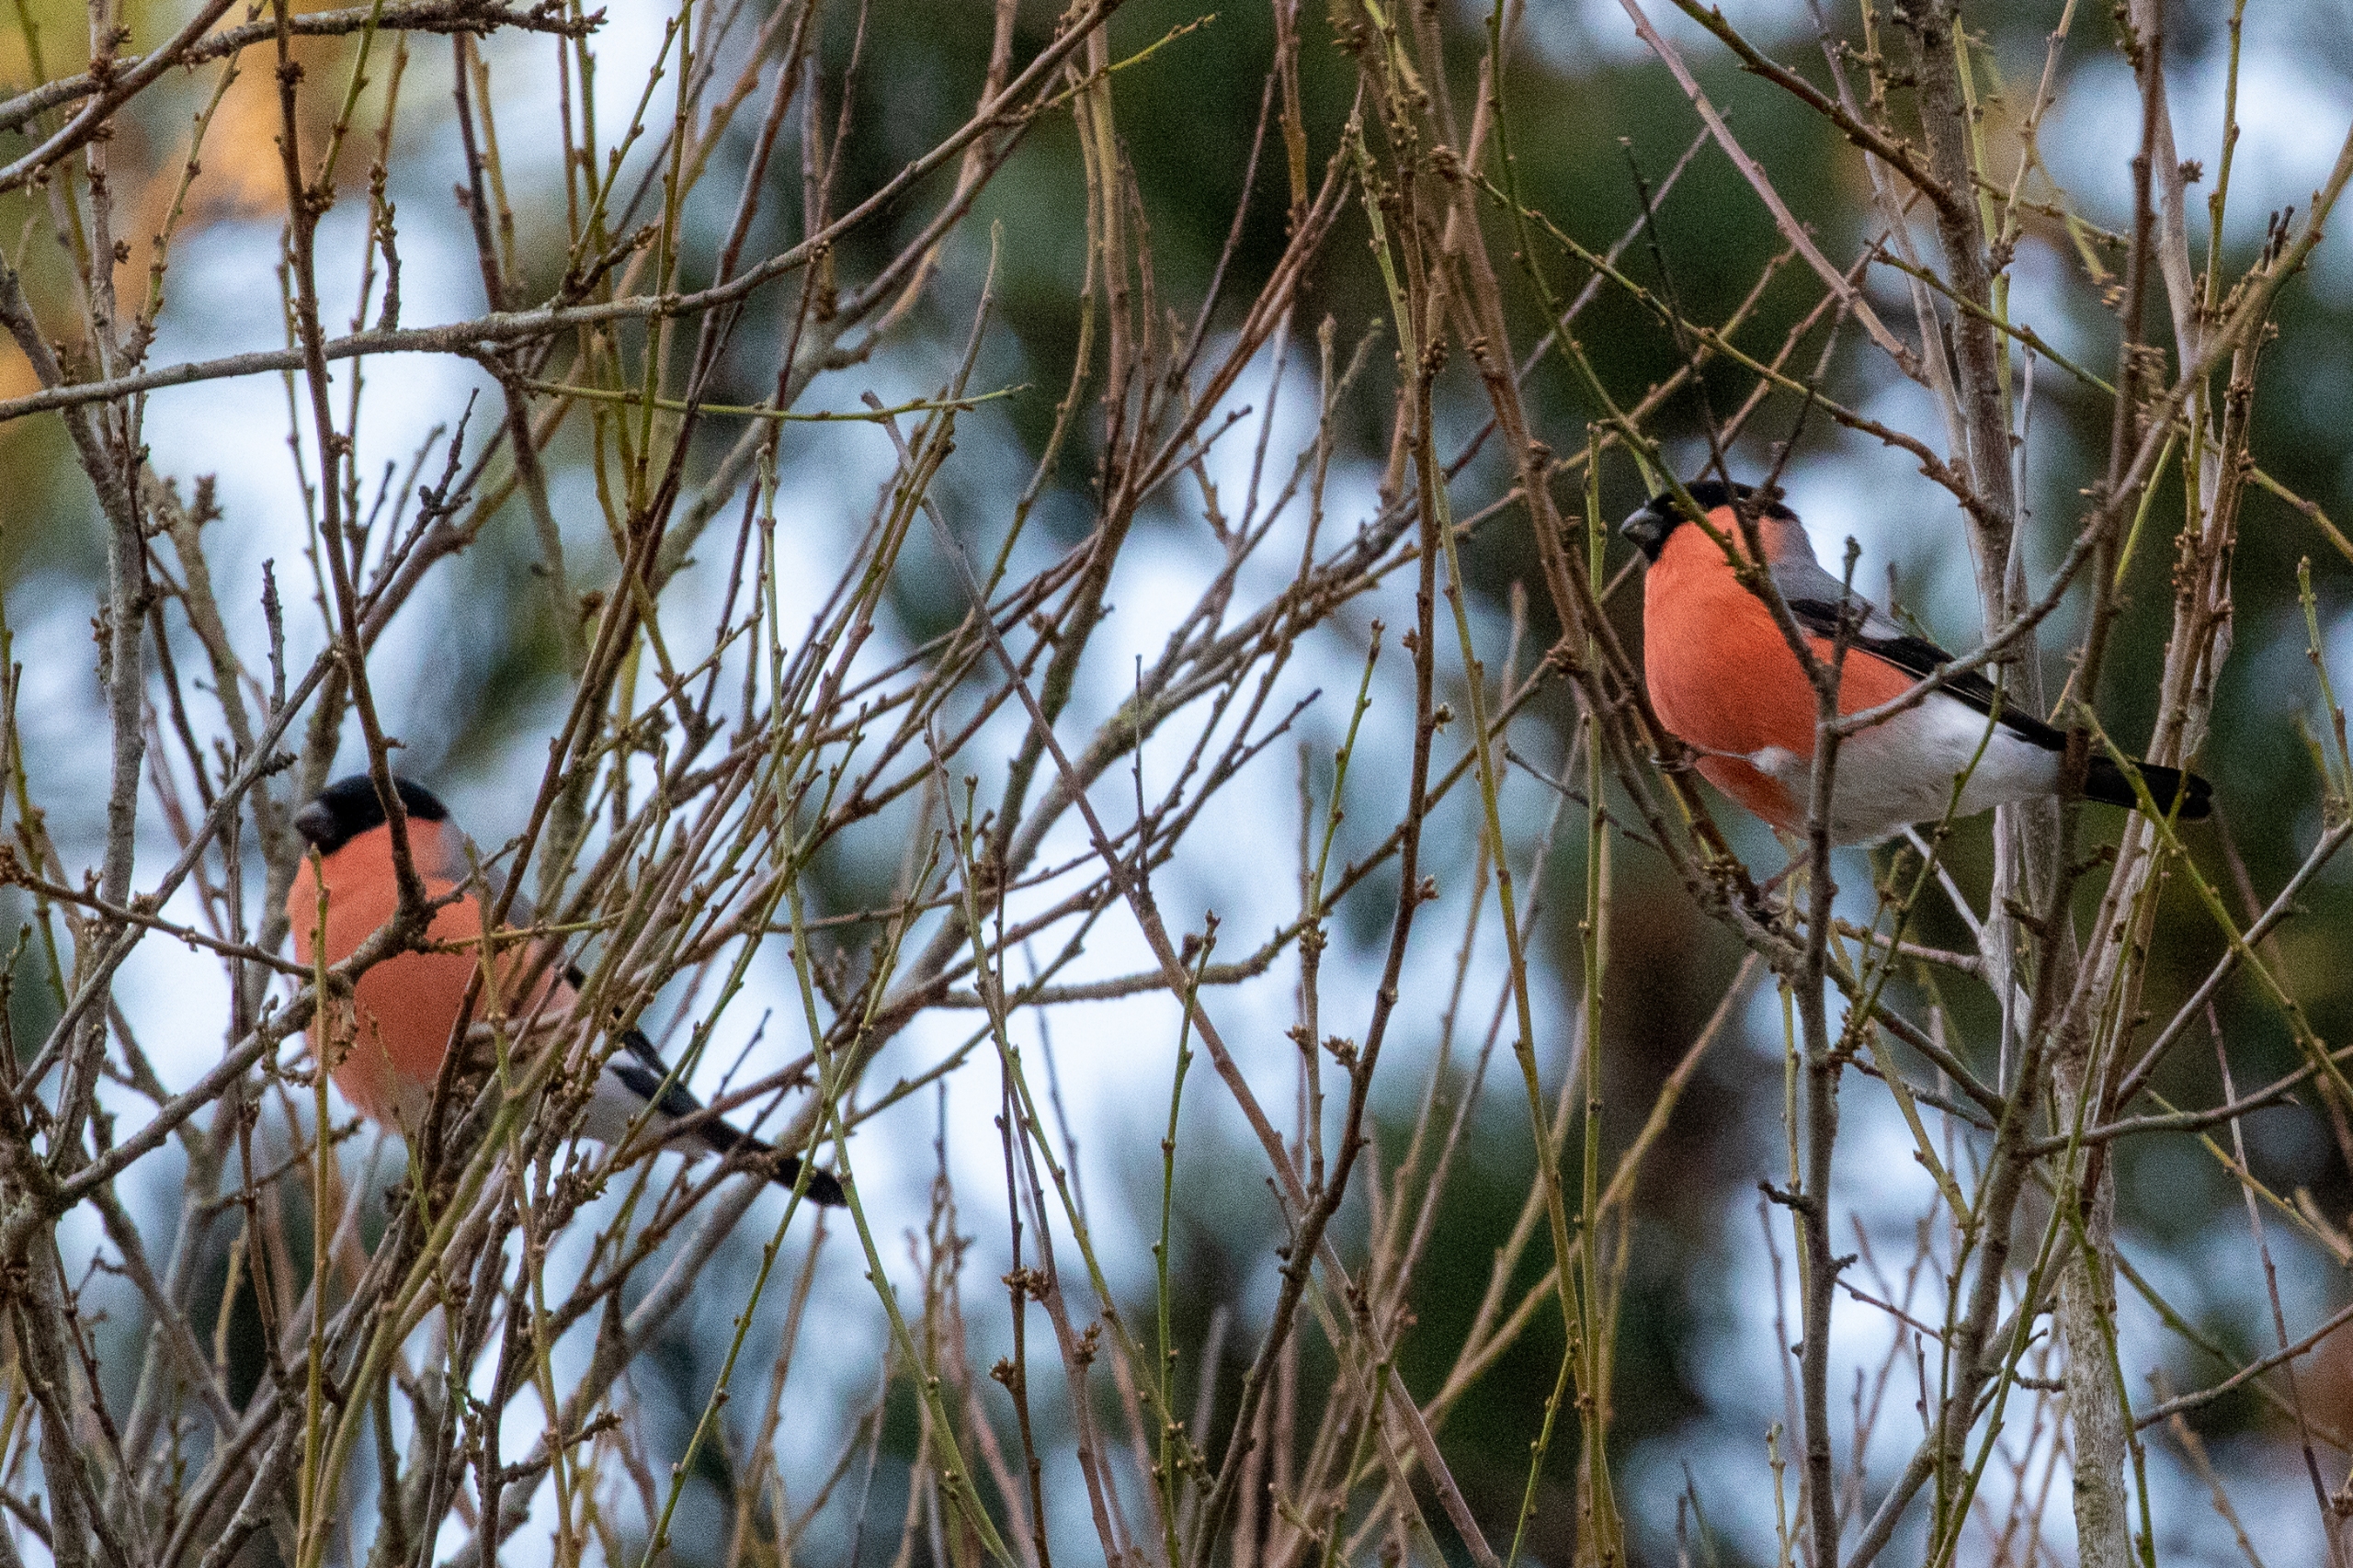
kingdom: Animalia
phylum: Chordata
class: Aves
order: Passeriformes
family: Fringillidae
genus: Pyrrhula
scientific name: Pyrrhula pyrrhula
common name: Dompap
